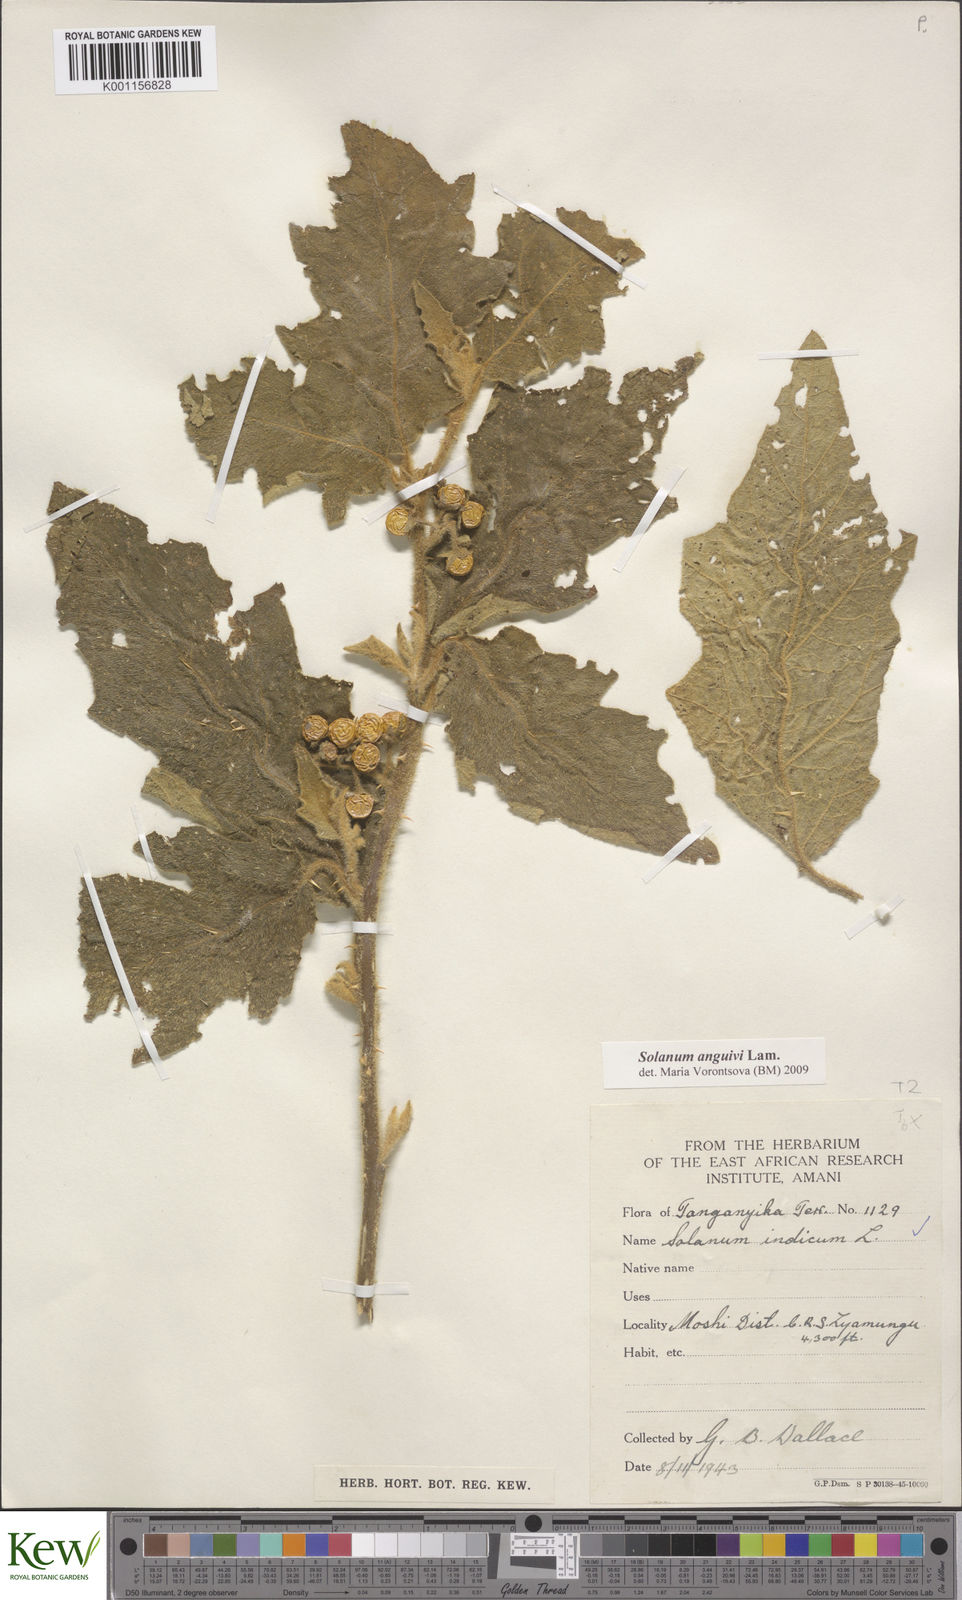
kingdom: Plantae
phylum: Tracheophyta
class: Magnoliopsida
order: Solanales
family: Solanaceae
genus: Solanum
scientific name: Solanum anguivi
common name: Forest bitterberry
